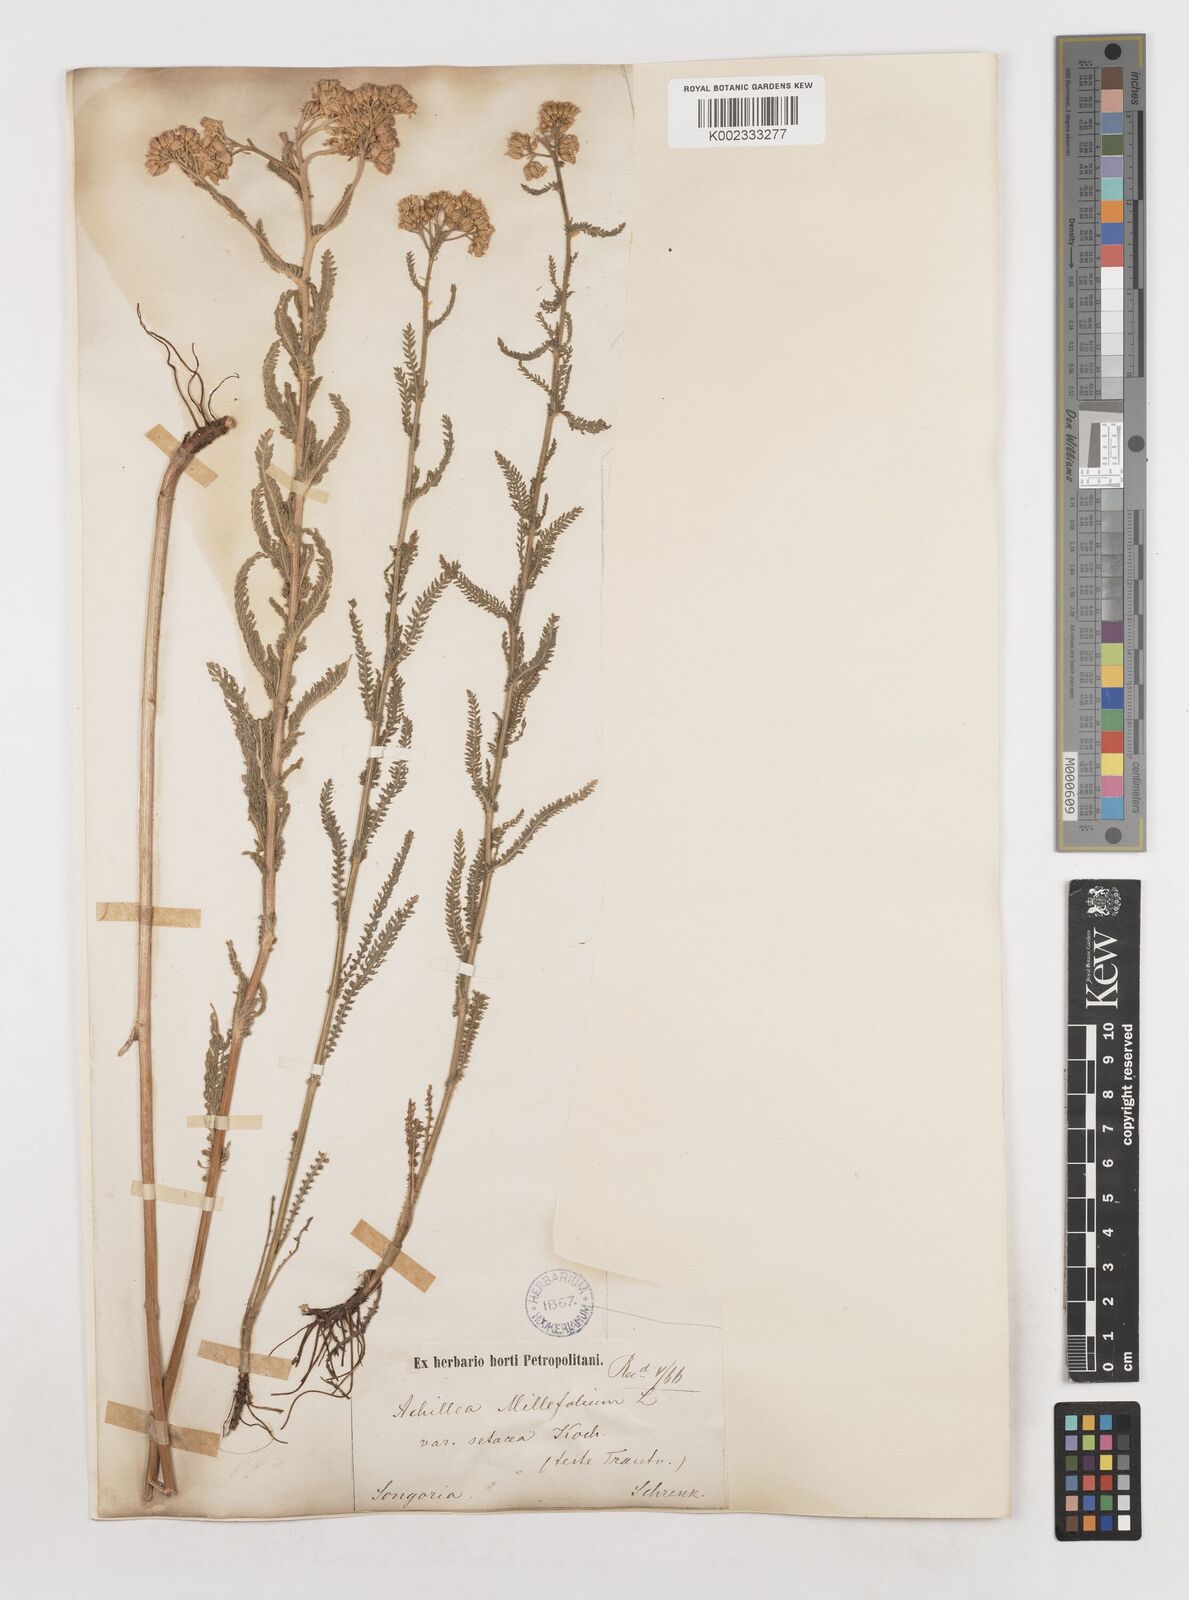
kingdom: Plantae
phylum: Tracheophyta
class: Magnoliopsida
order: Asterales
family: Asteraceae
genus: Achillea
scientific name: Achillea setacea
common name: Bristly yarrow
